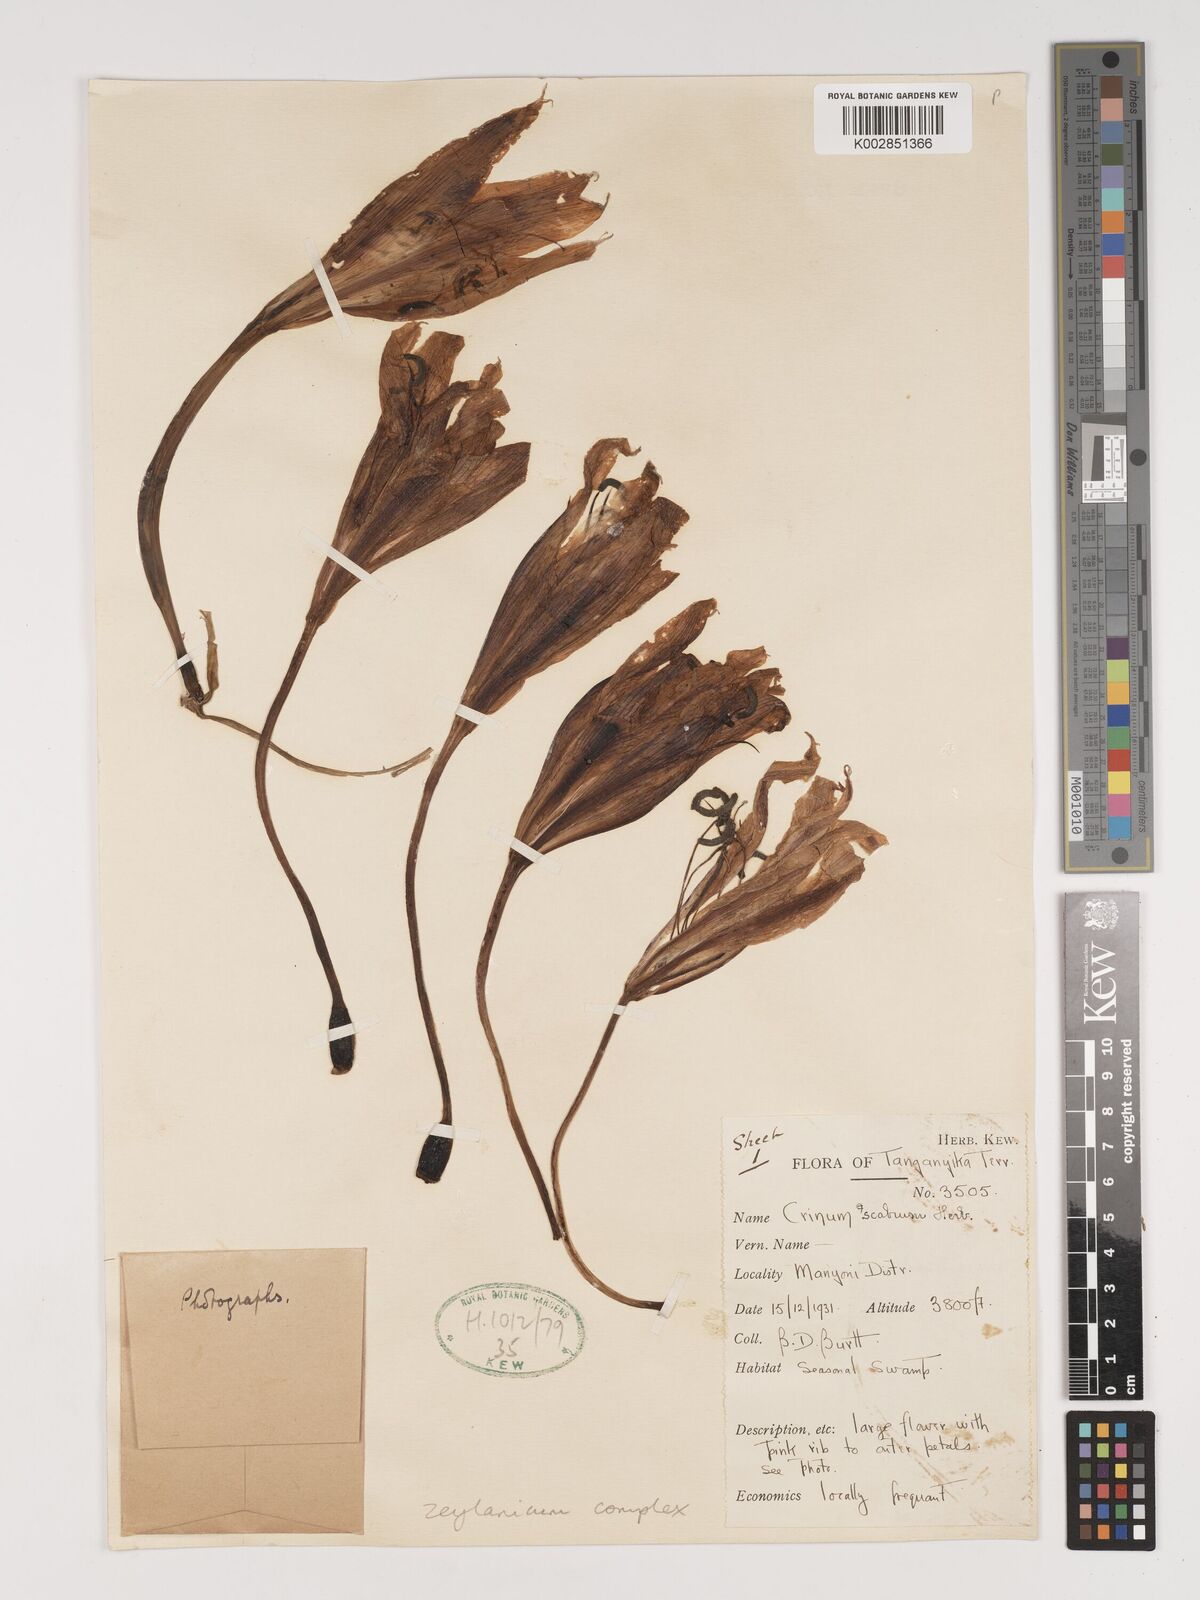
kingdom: Plantae
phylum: Tracheophyta
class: Liliopsida
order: Asparagales
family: Amaryllidaceae
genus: Crinum
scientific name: Crinum zeylanicum
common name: Ceylon swamplily
